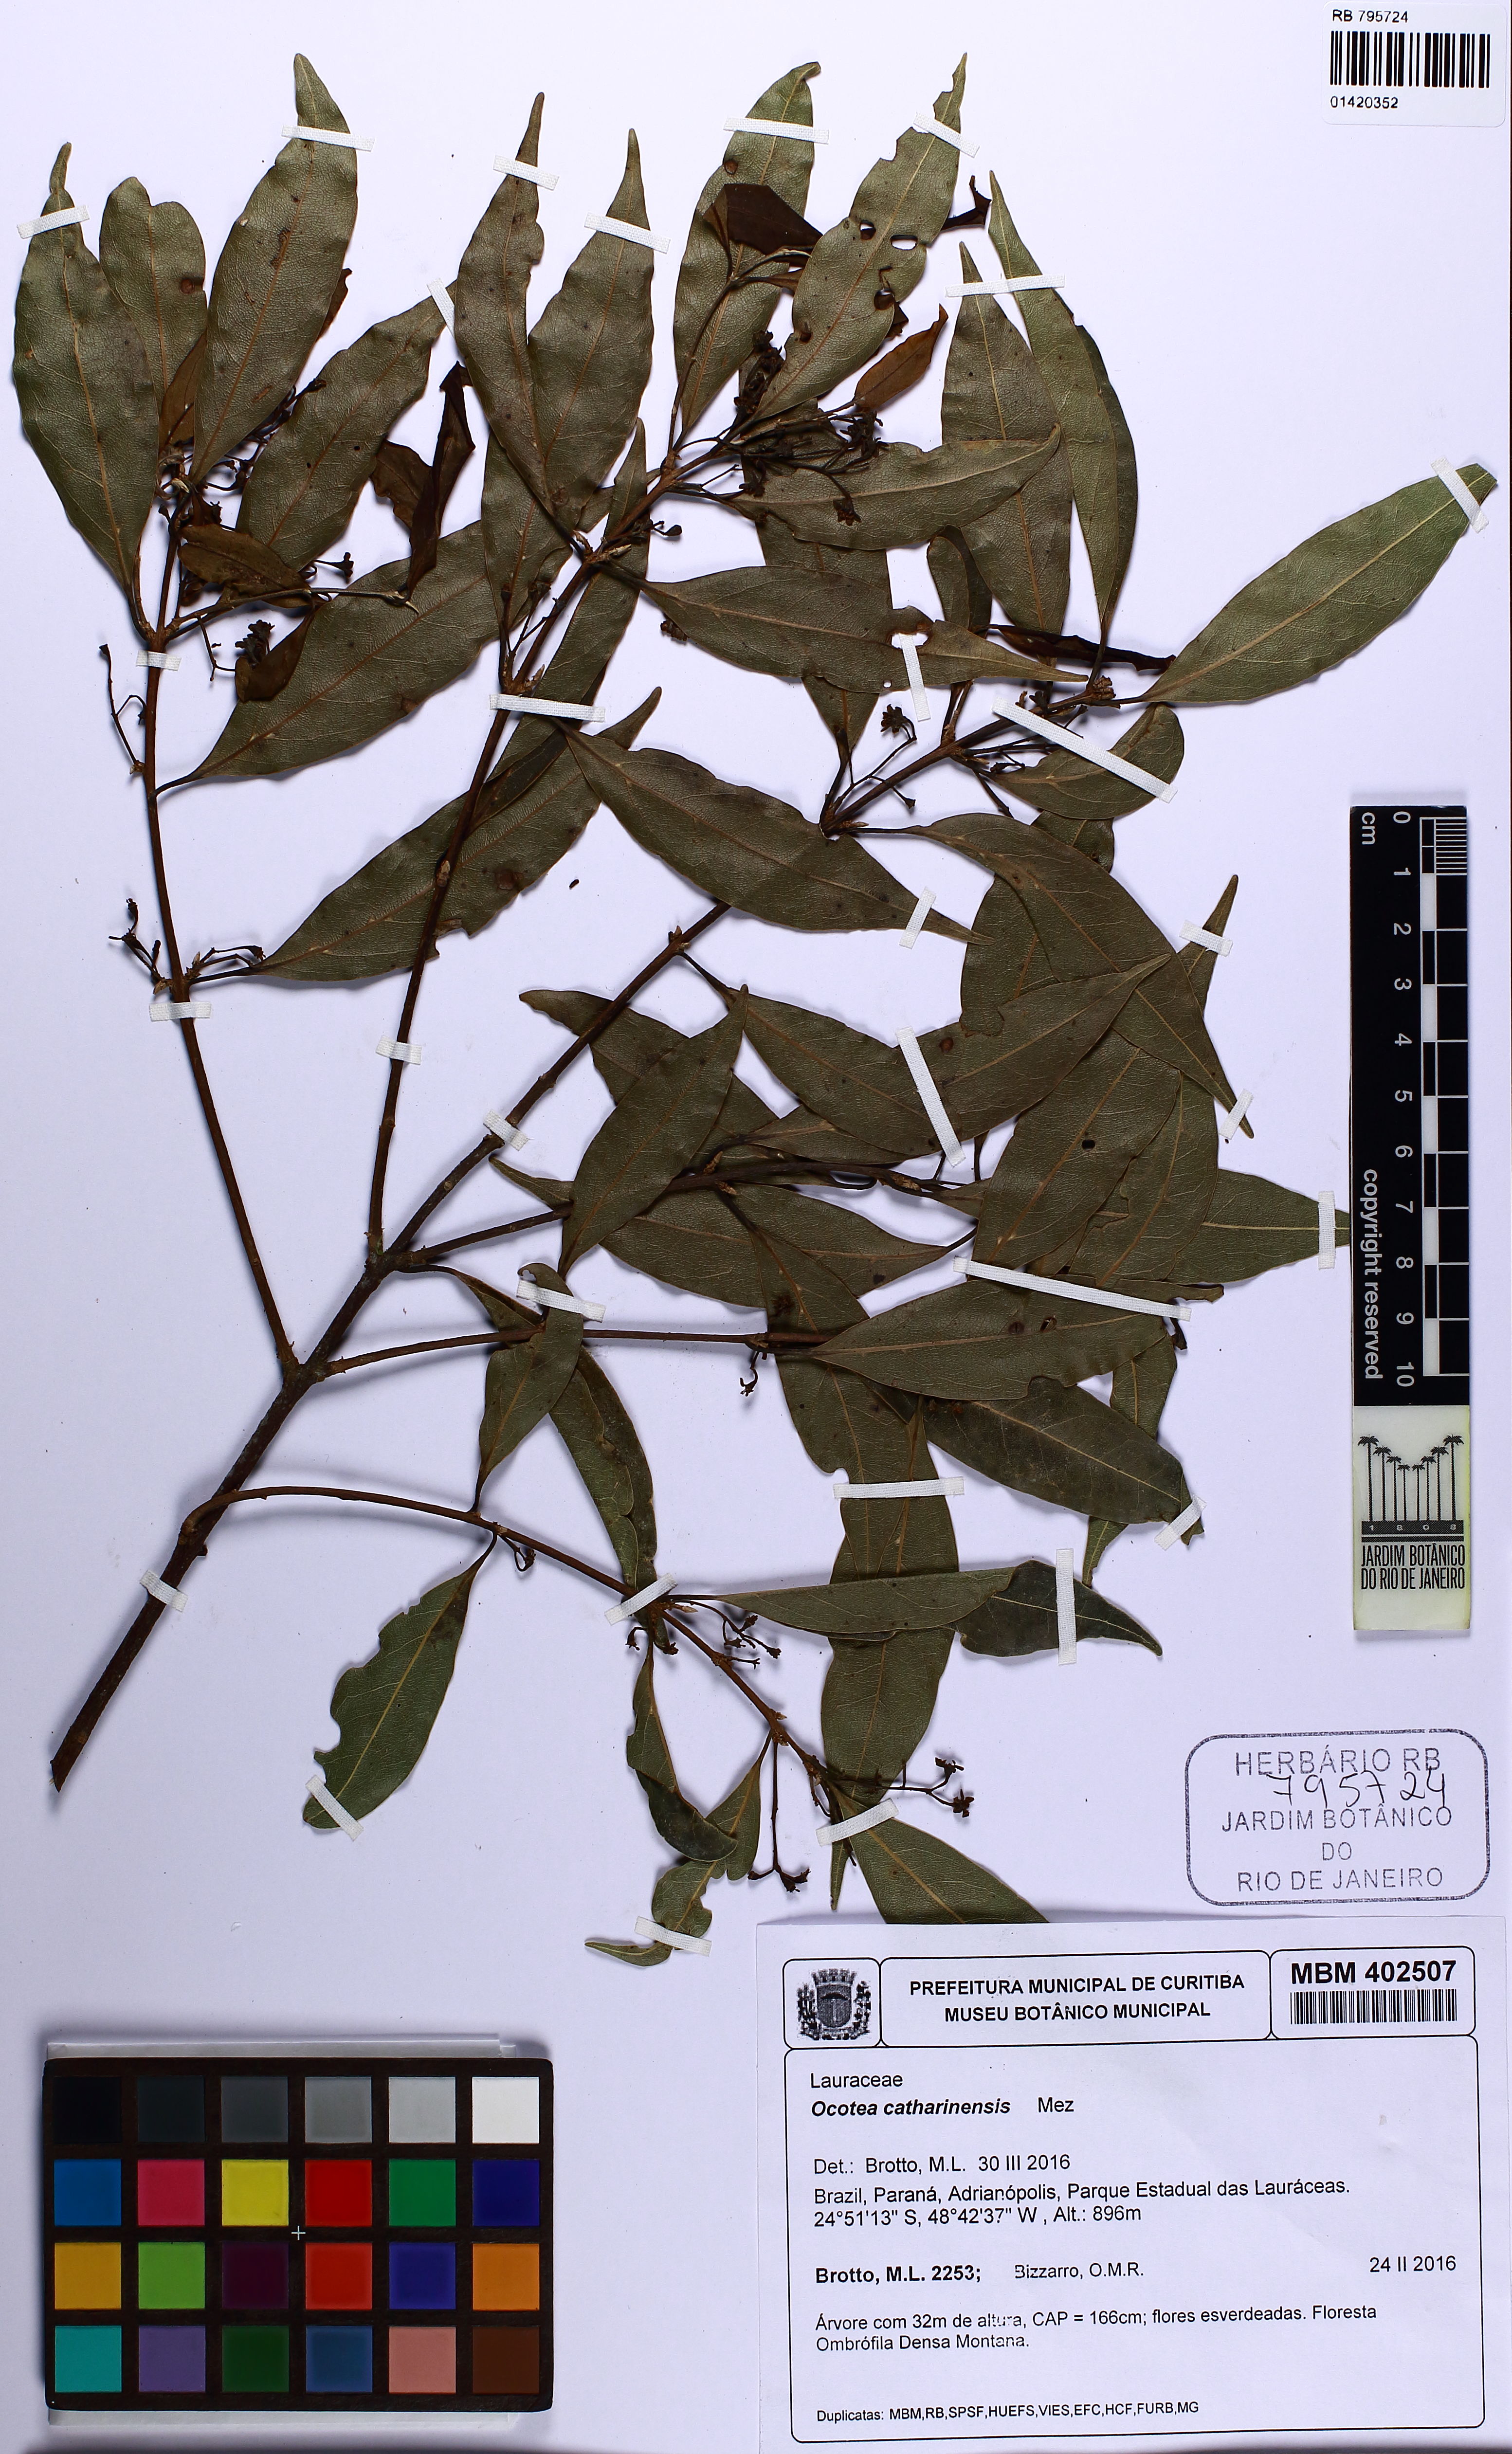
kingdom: Plantae
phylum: Tracheophyta
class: Magnoliopsida
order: Laurales
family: Lauraceae
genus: Ocotea
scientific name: Ocotea catharinensis
